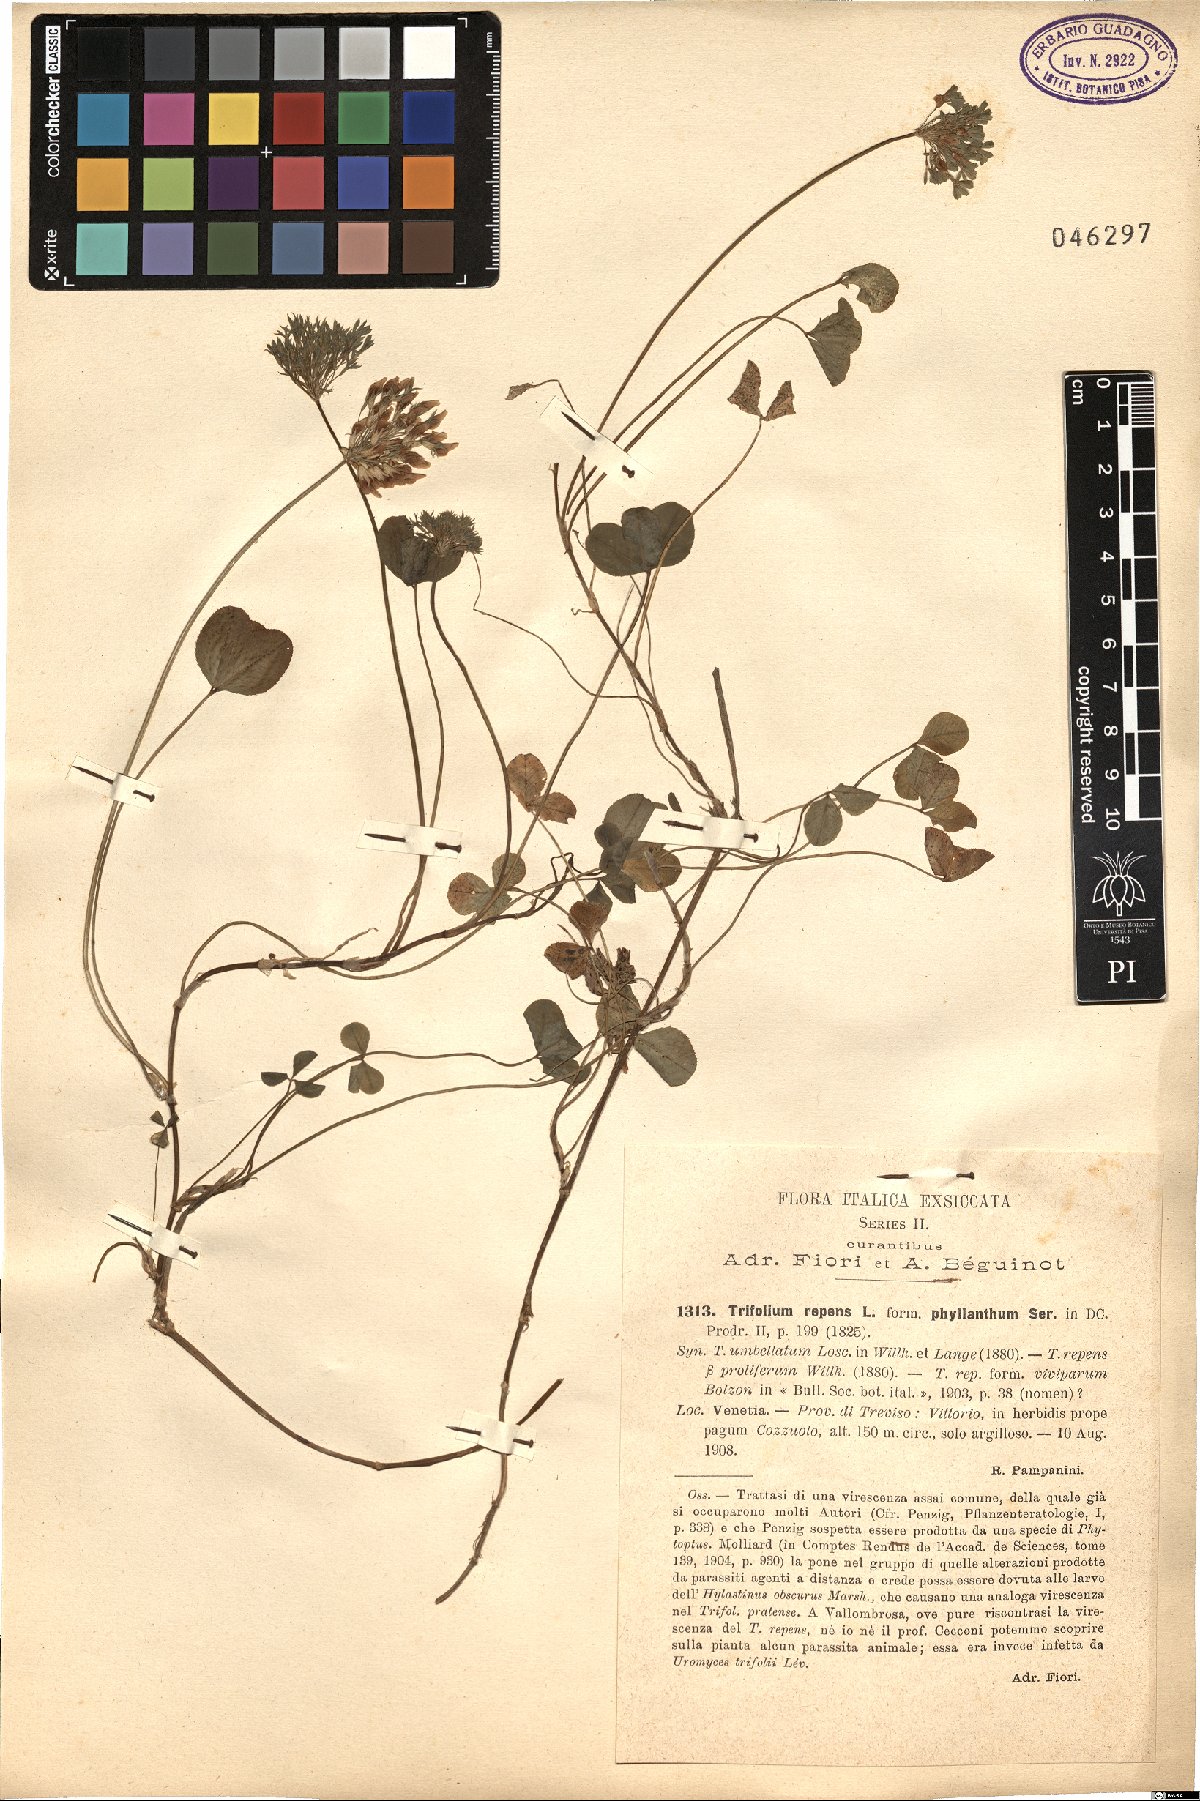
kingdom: Plantae
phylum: Tracheophyta
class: Magnoliopsida
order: Fabales
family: Fabaceae
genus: Trifolium
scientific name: Trifolium repens
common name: White clover
